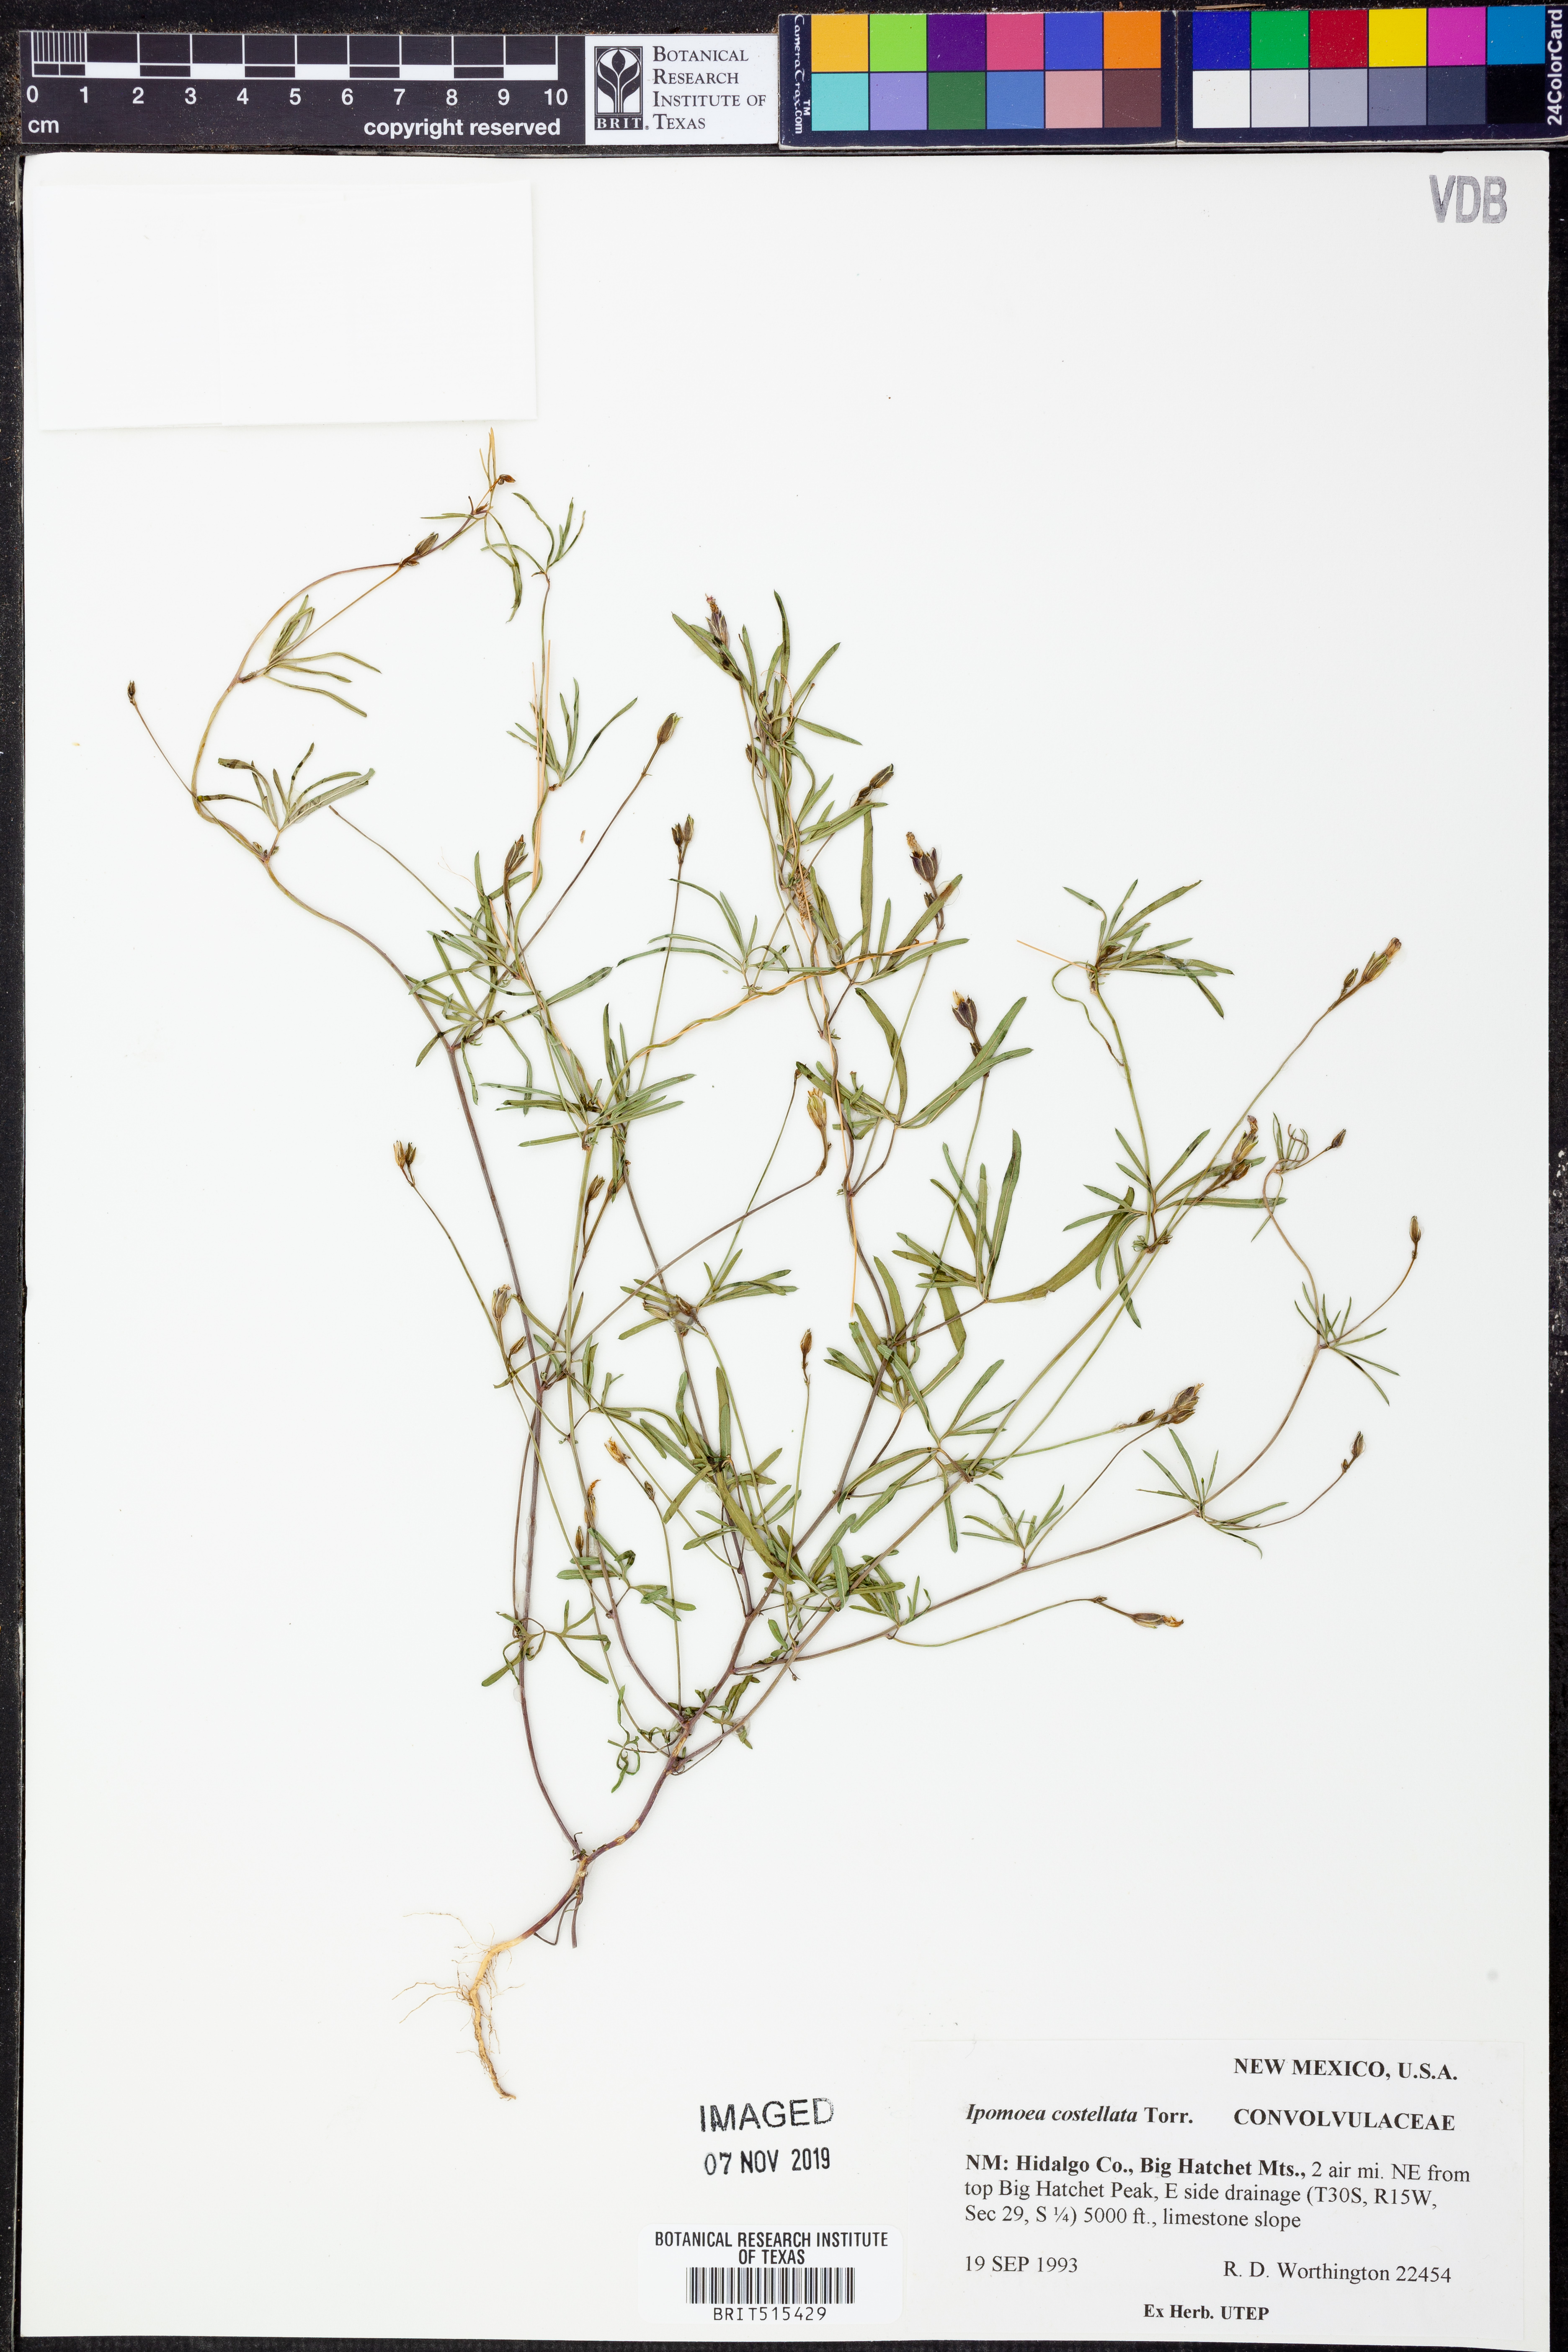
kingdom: Plantae
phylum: Tracheophyta
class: Magnoliopsida
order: Solanales
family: Convolvulaceae
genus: Ipomoea
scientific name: Ipomoea costellata
